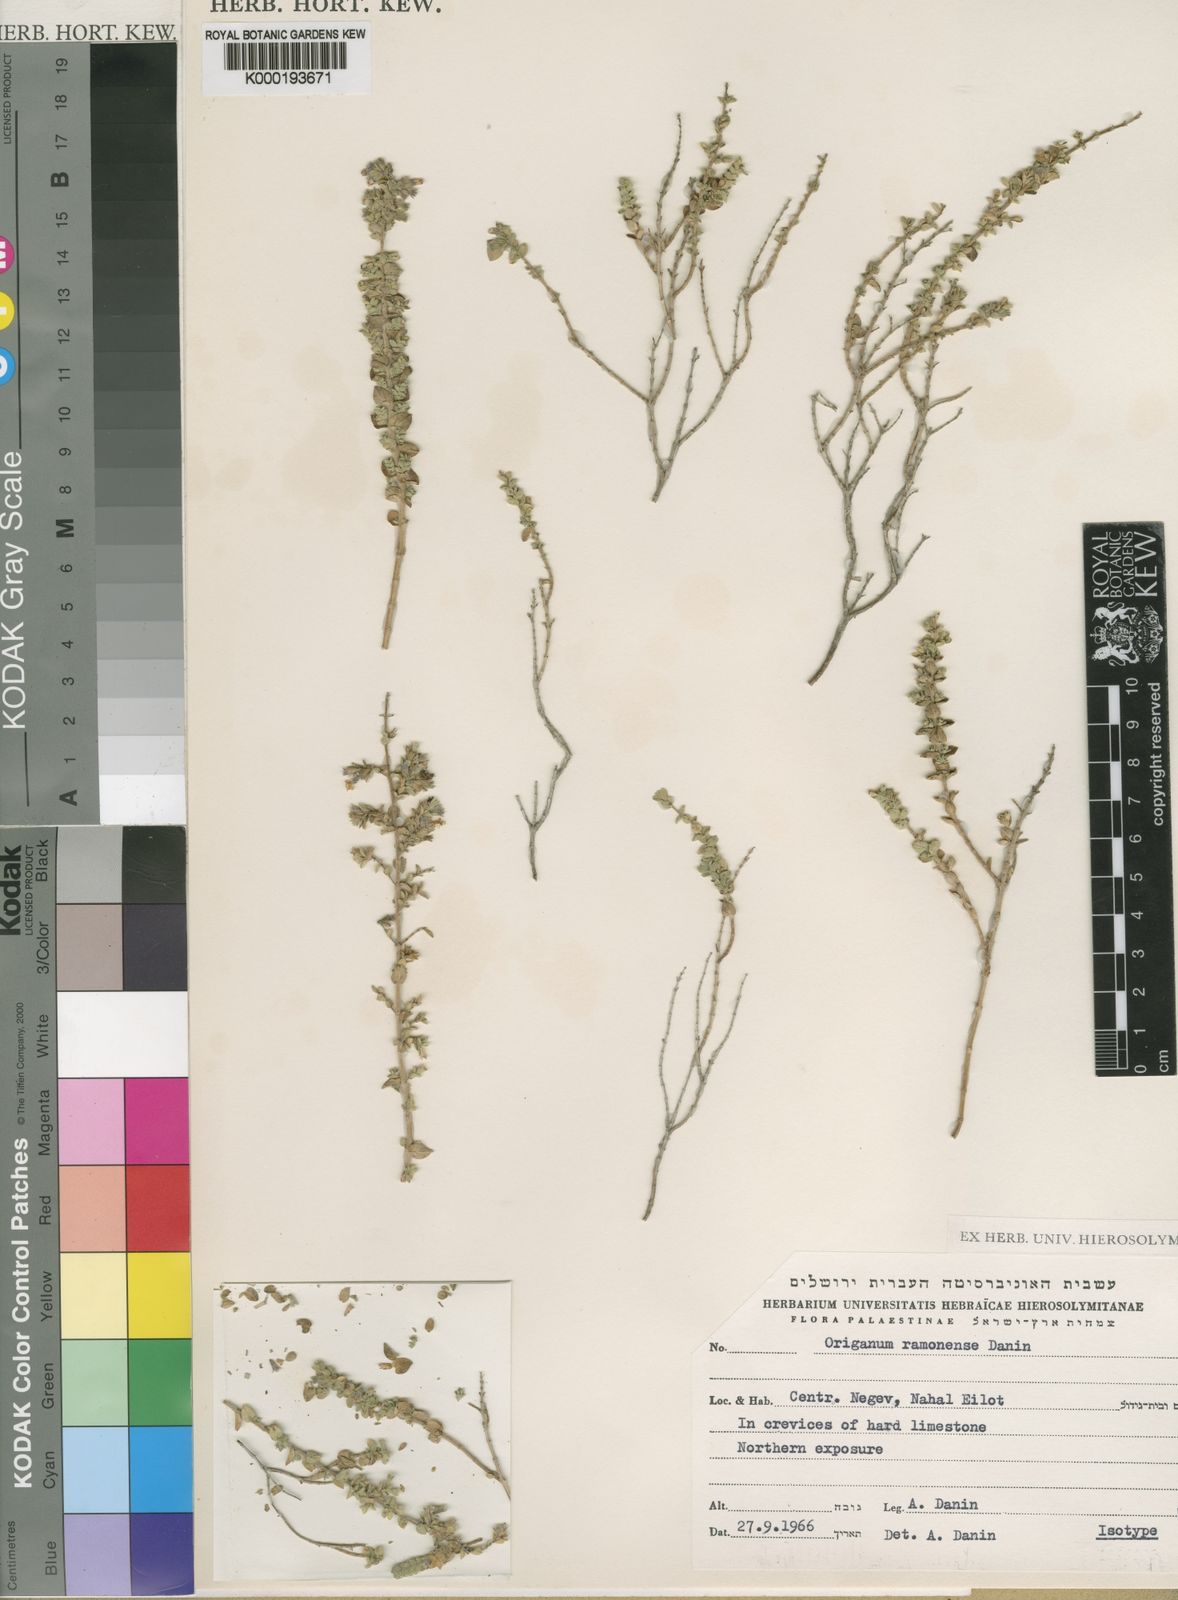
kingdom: Plantae
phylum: Tracheophyta
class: Magnoliopsida
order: Lamiales
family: Lamiaceae
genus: Origanum
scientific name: Origanum ramonense
